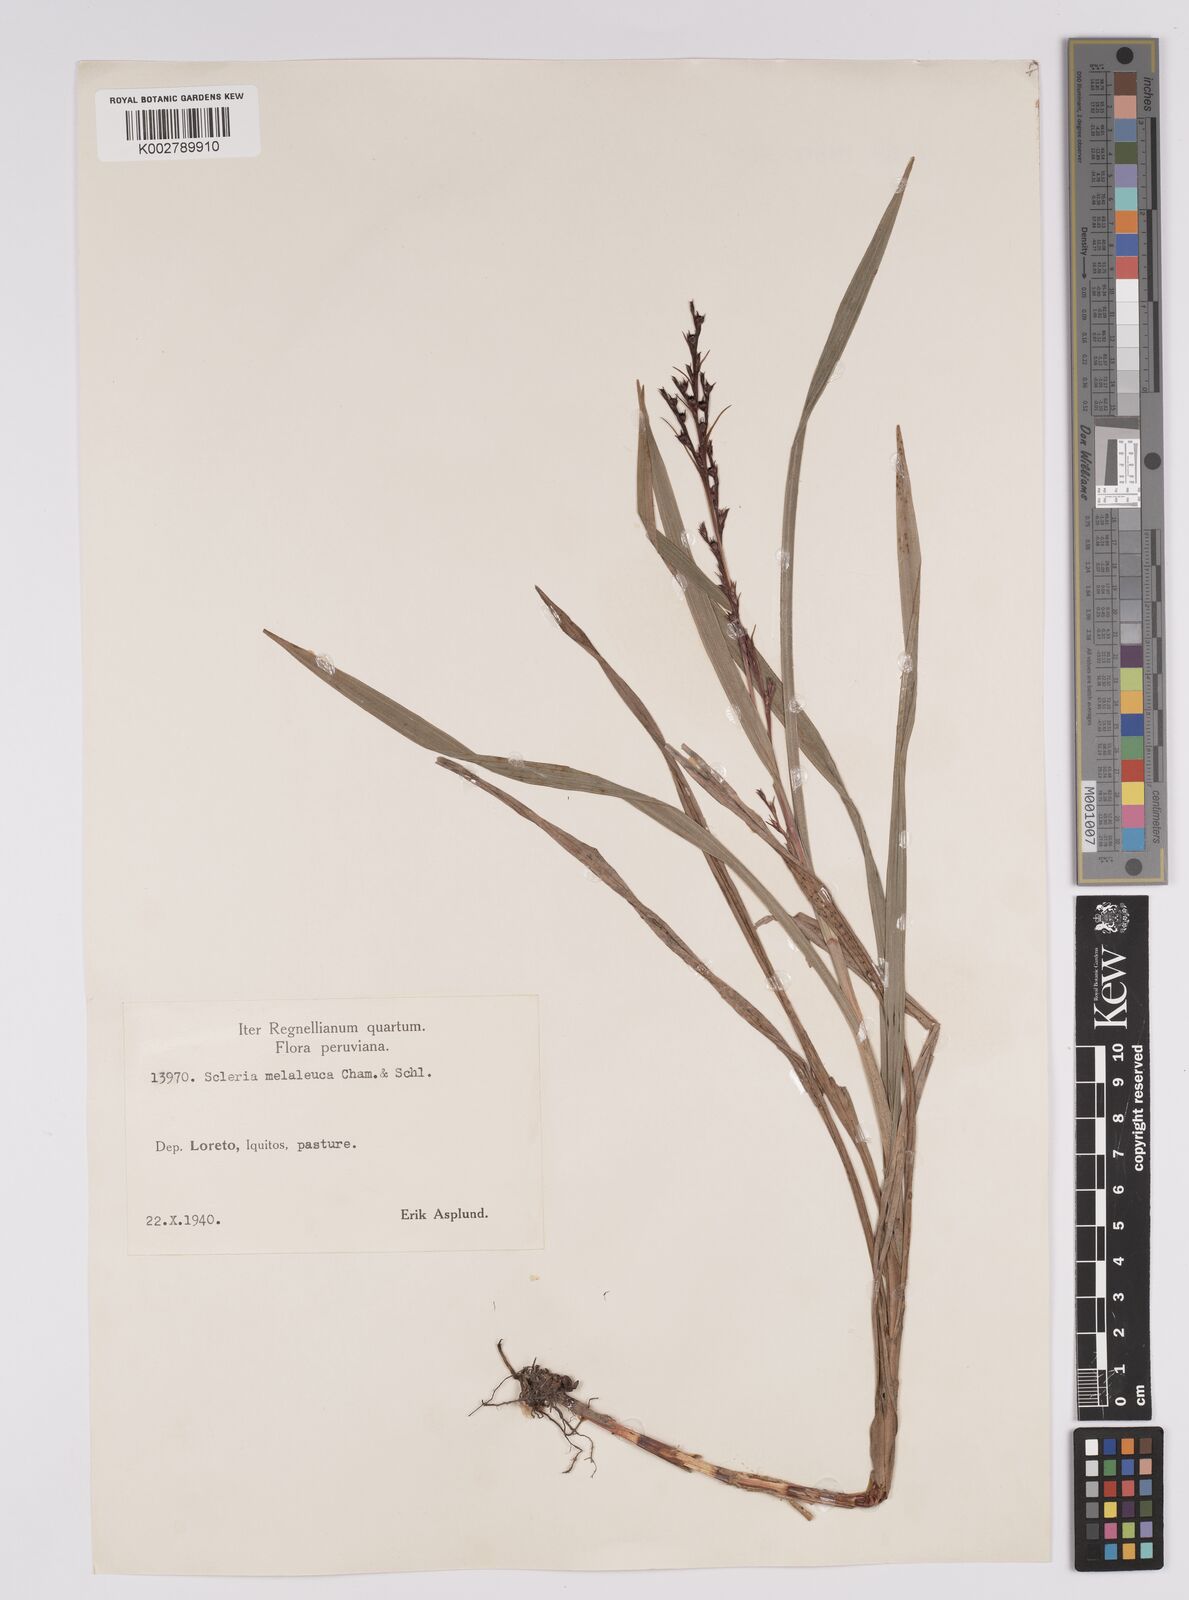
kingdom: Plantae
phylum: Tracheophyta
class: Liliopsida
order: Poales
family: Cyperaceae
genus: Scleria
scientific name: Scleria gaertneri
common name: Cortadera blanca
